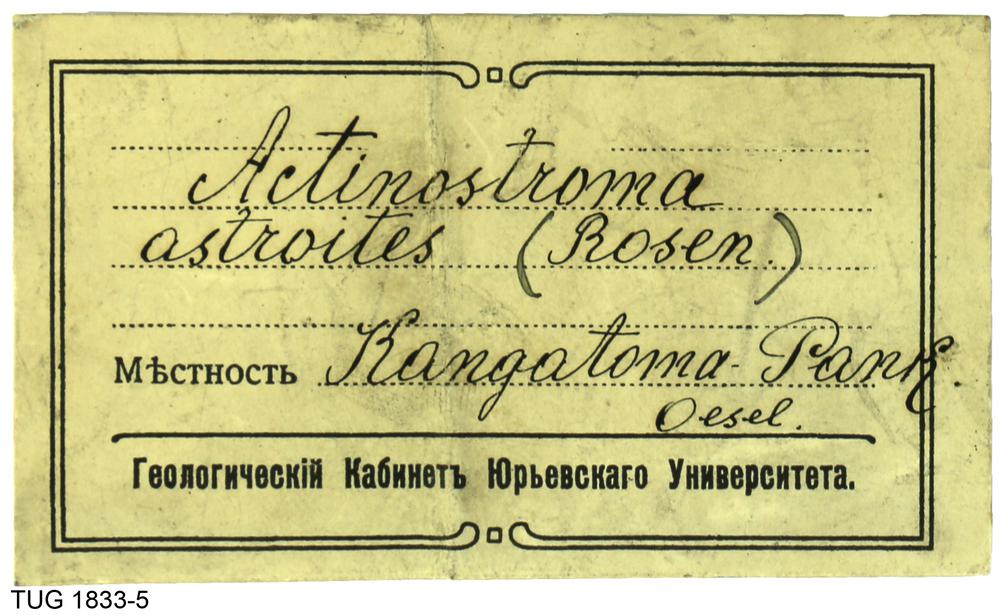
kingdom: Animalia
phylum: Porifera
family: Densastromatidae
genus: Densastroma
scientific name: Densastroma
